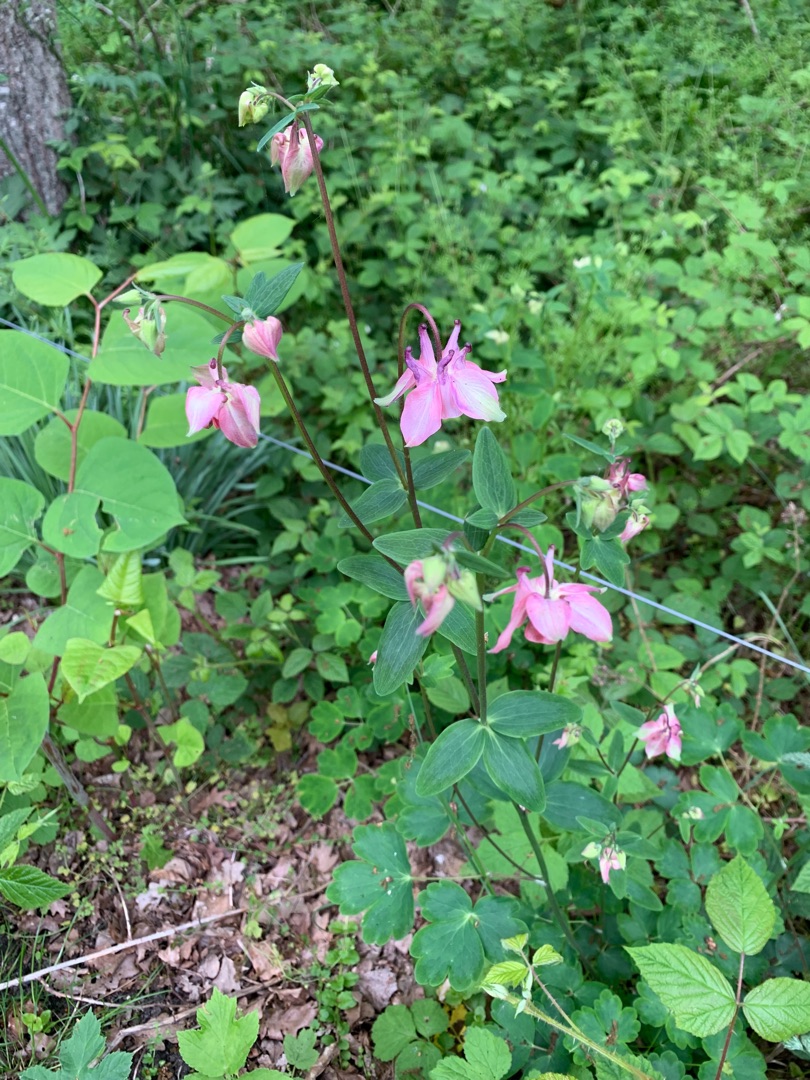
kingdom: Plantae
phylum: Tracheophyta
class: Magnoliopsida
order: Ranunculales
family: Ranunculaceae
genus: Aquilegia
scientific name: Aquilegia vulgaris
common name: Akeleje
